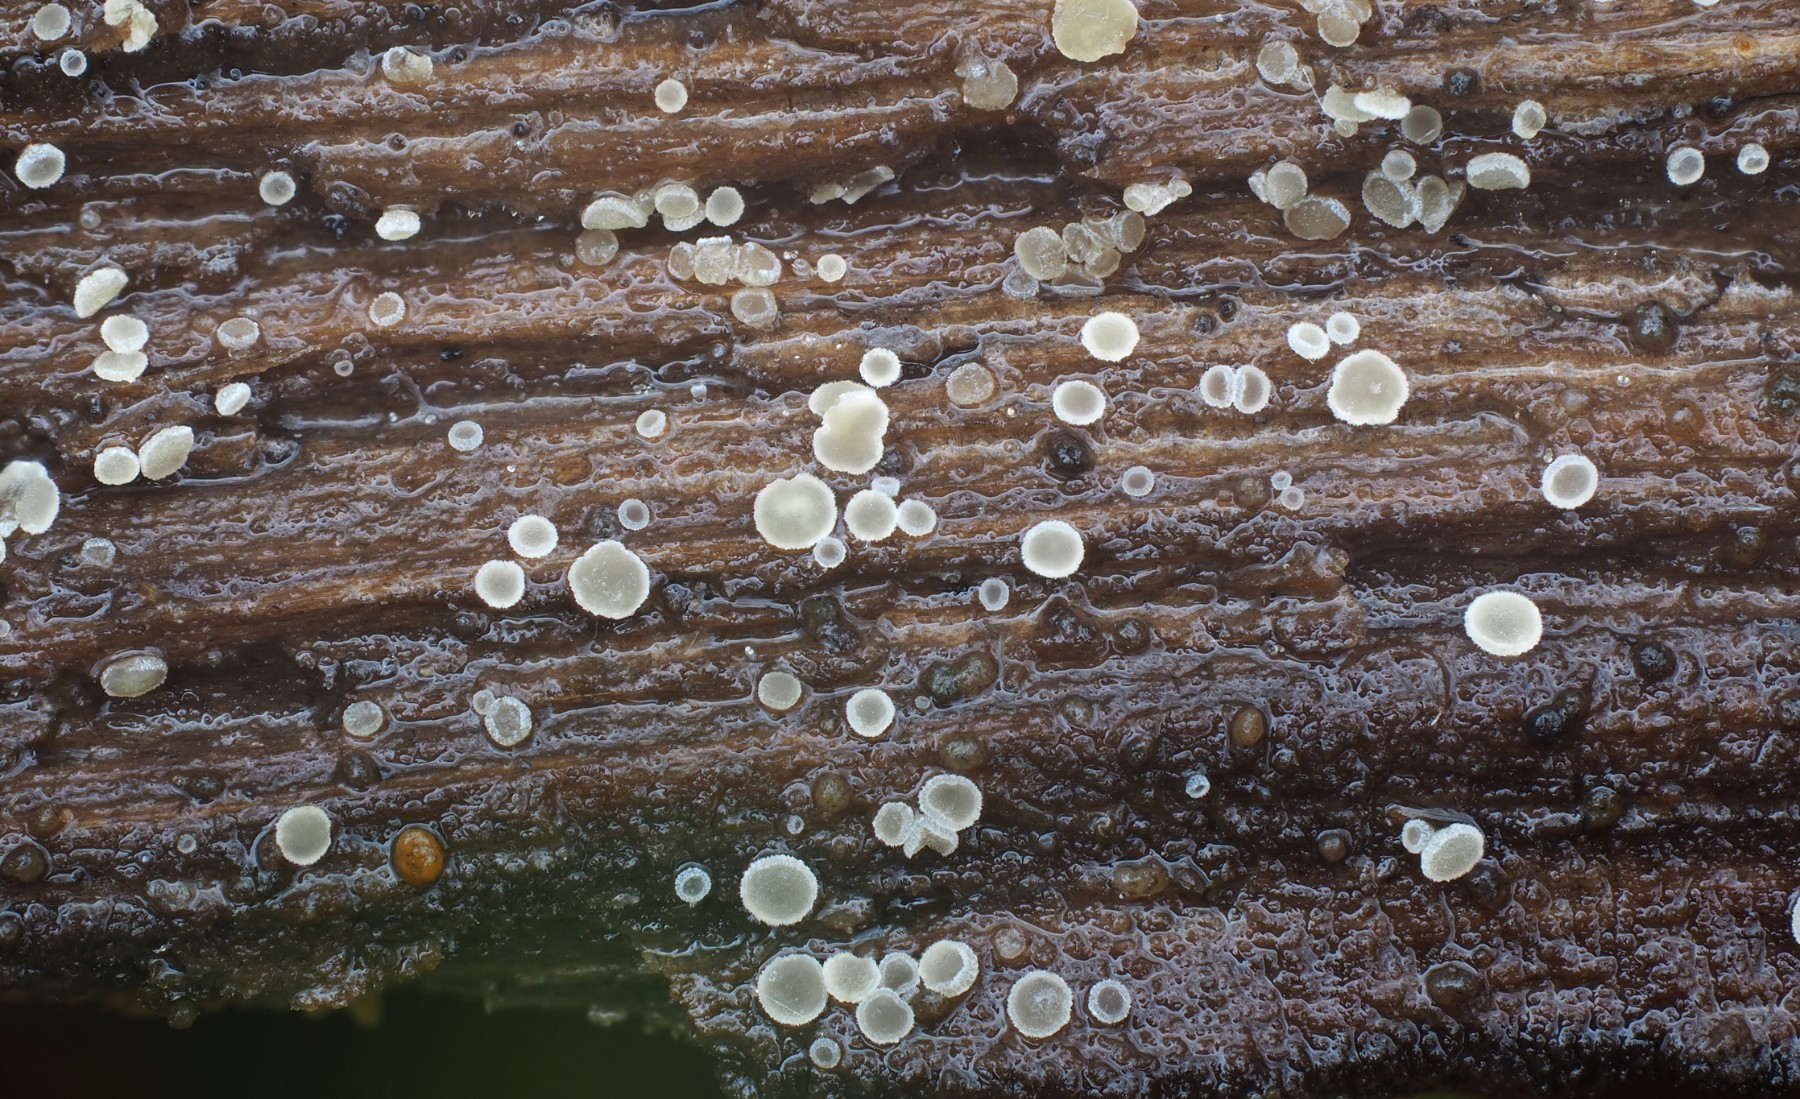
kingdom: Fungi
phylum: Ascomycota
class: Leotiomycetes
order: Helotiales
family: Hyaloscyphaceae
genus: Hyaloscypha
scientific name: Hyaloscypha daedaleae
